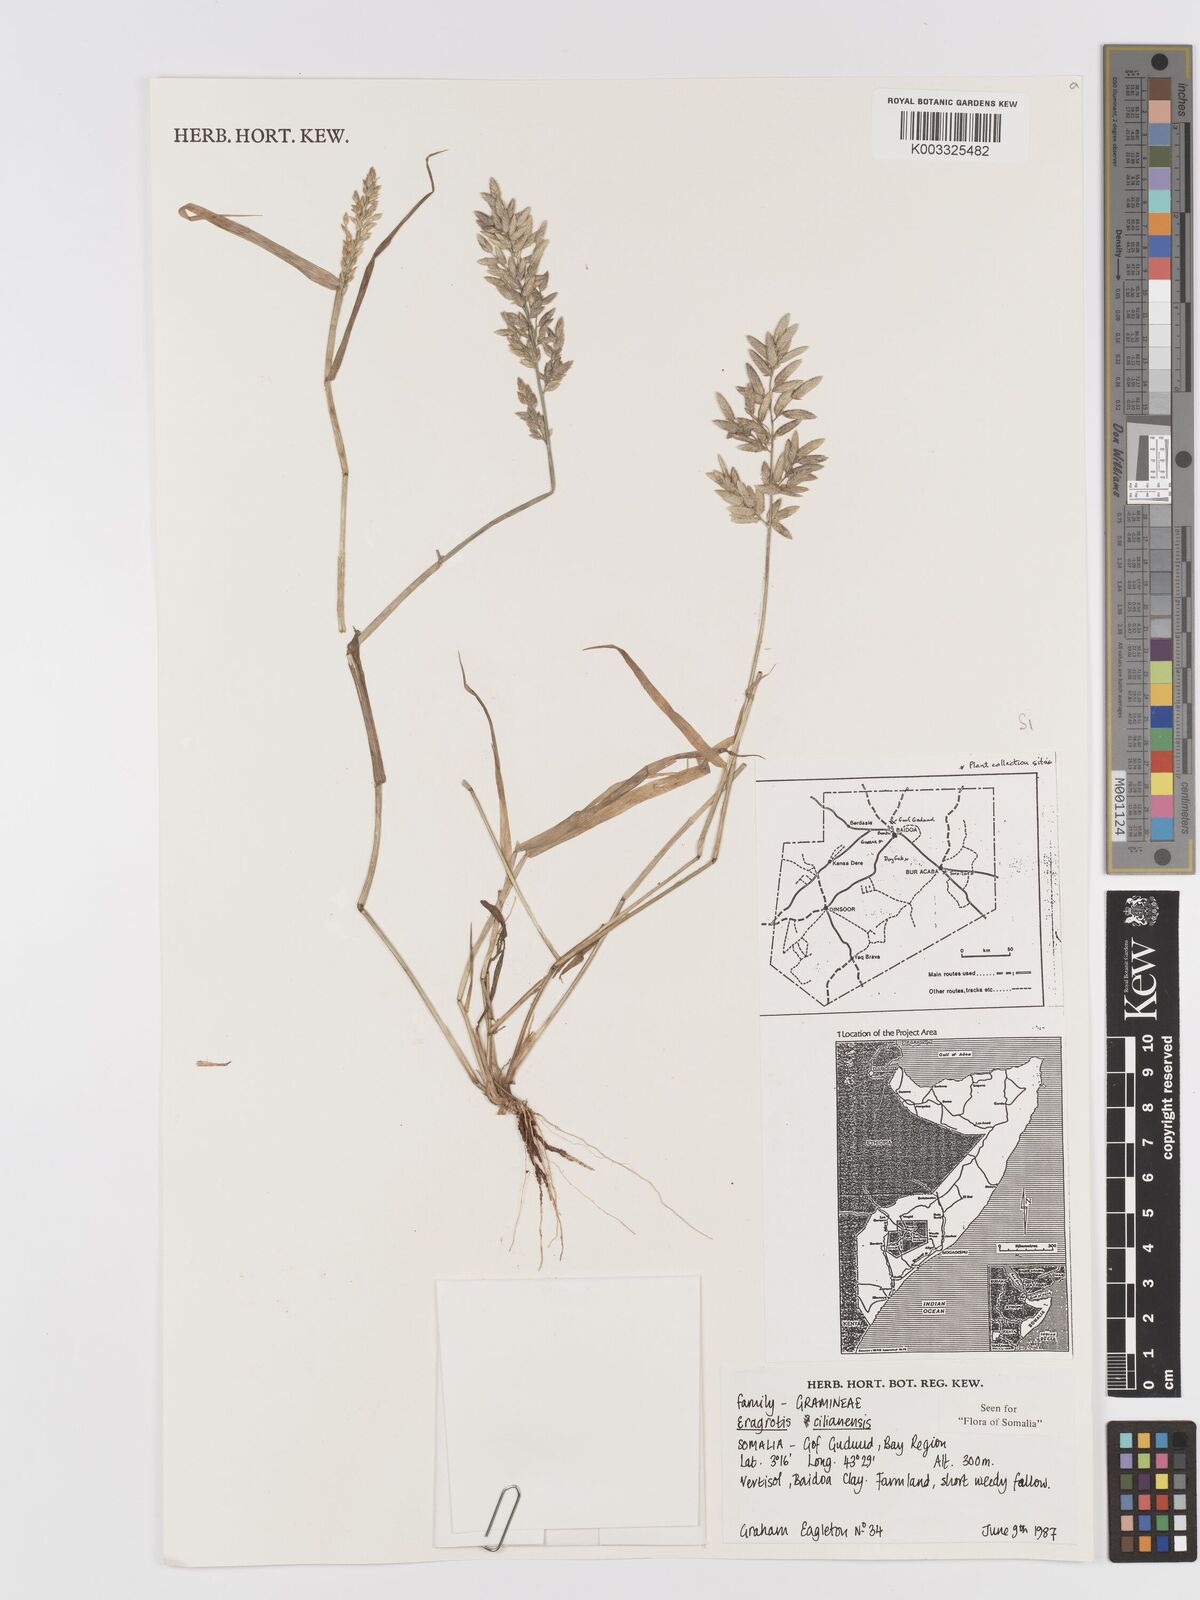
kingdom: Plantae
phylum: Tracheophyta
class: Liliopsida
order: Poales
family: Poaceae
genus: Eragrostis
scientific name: Eragrostis cilianensis
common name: Stinkgrass
